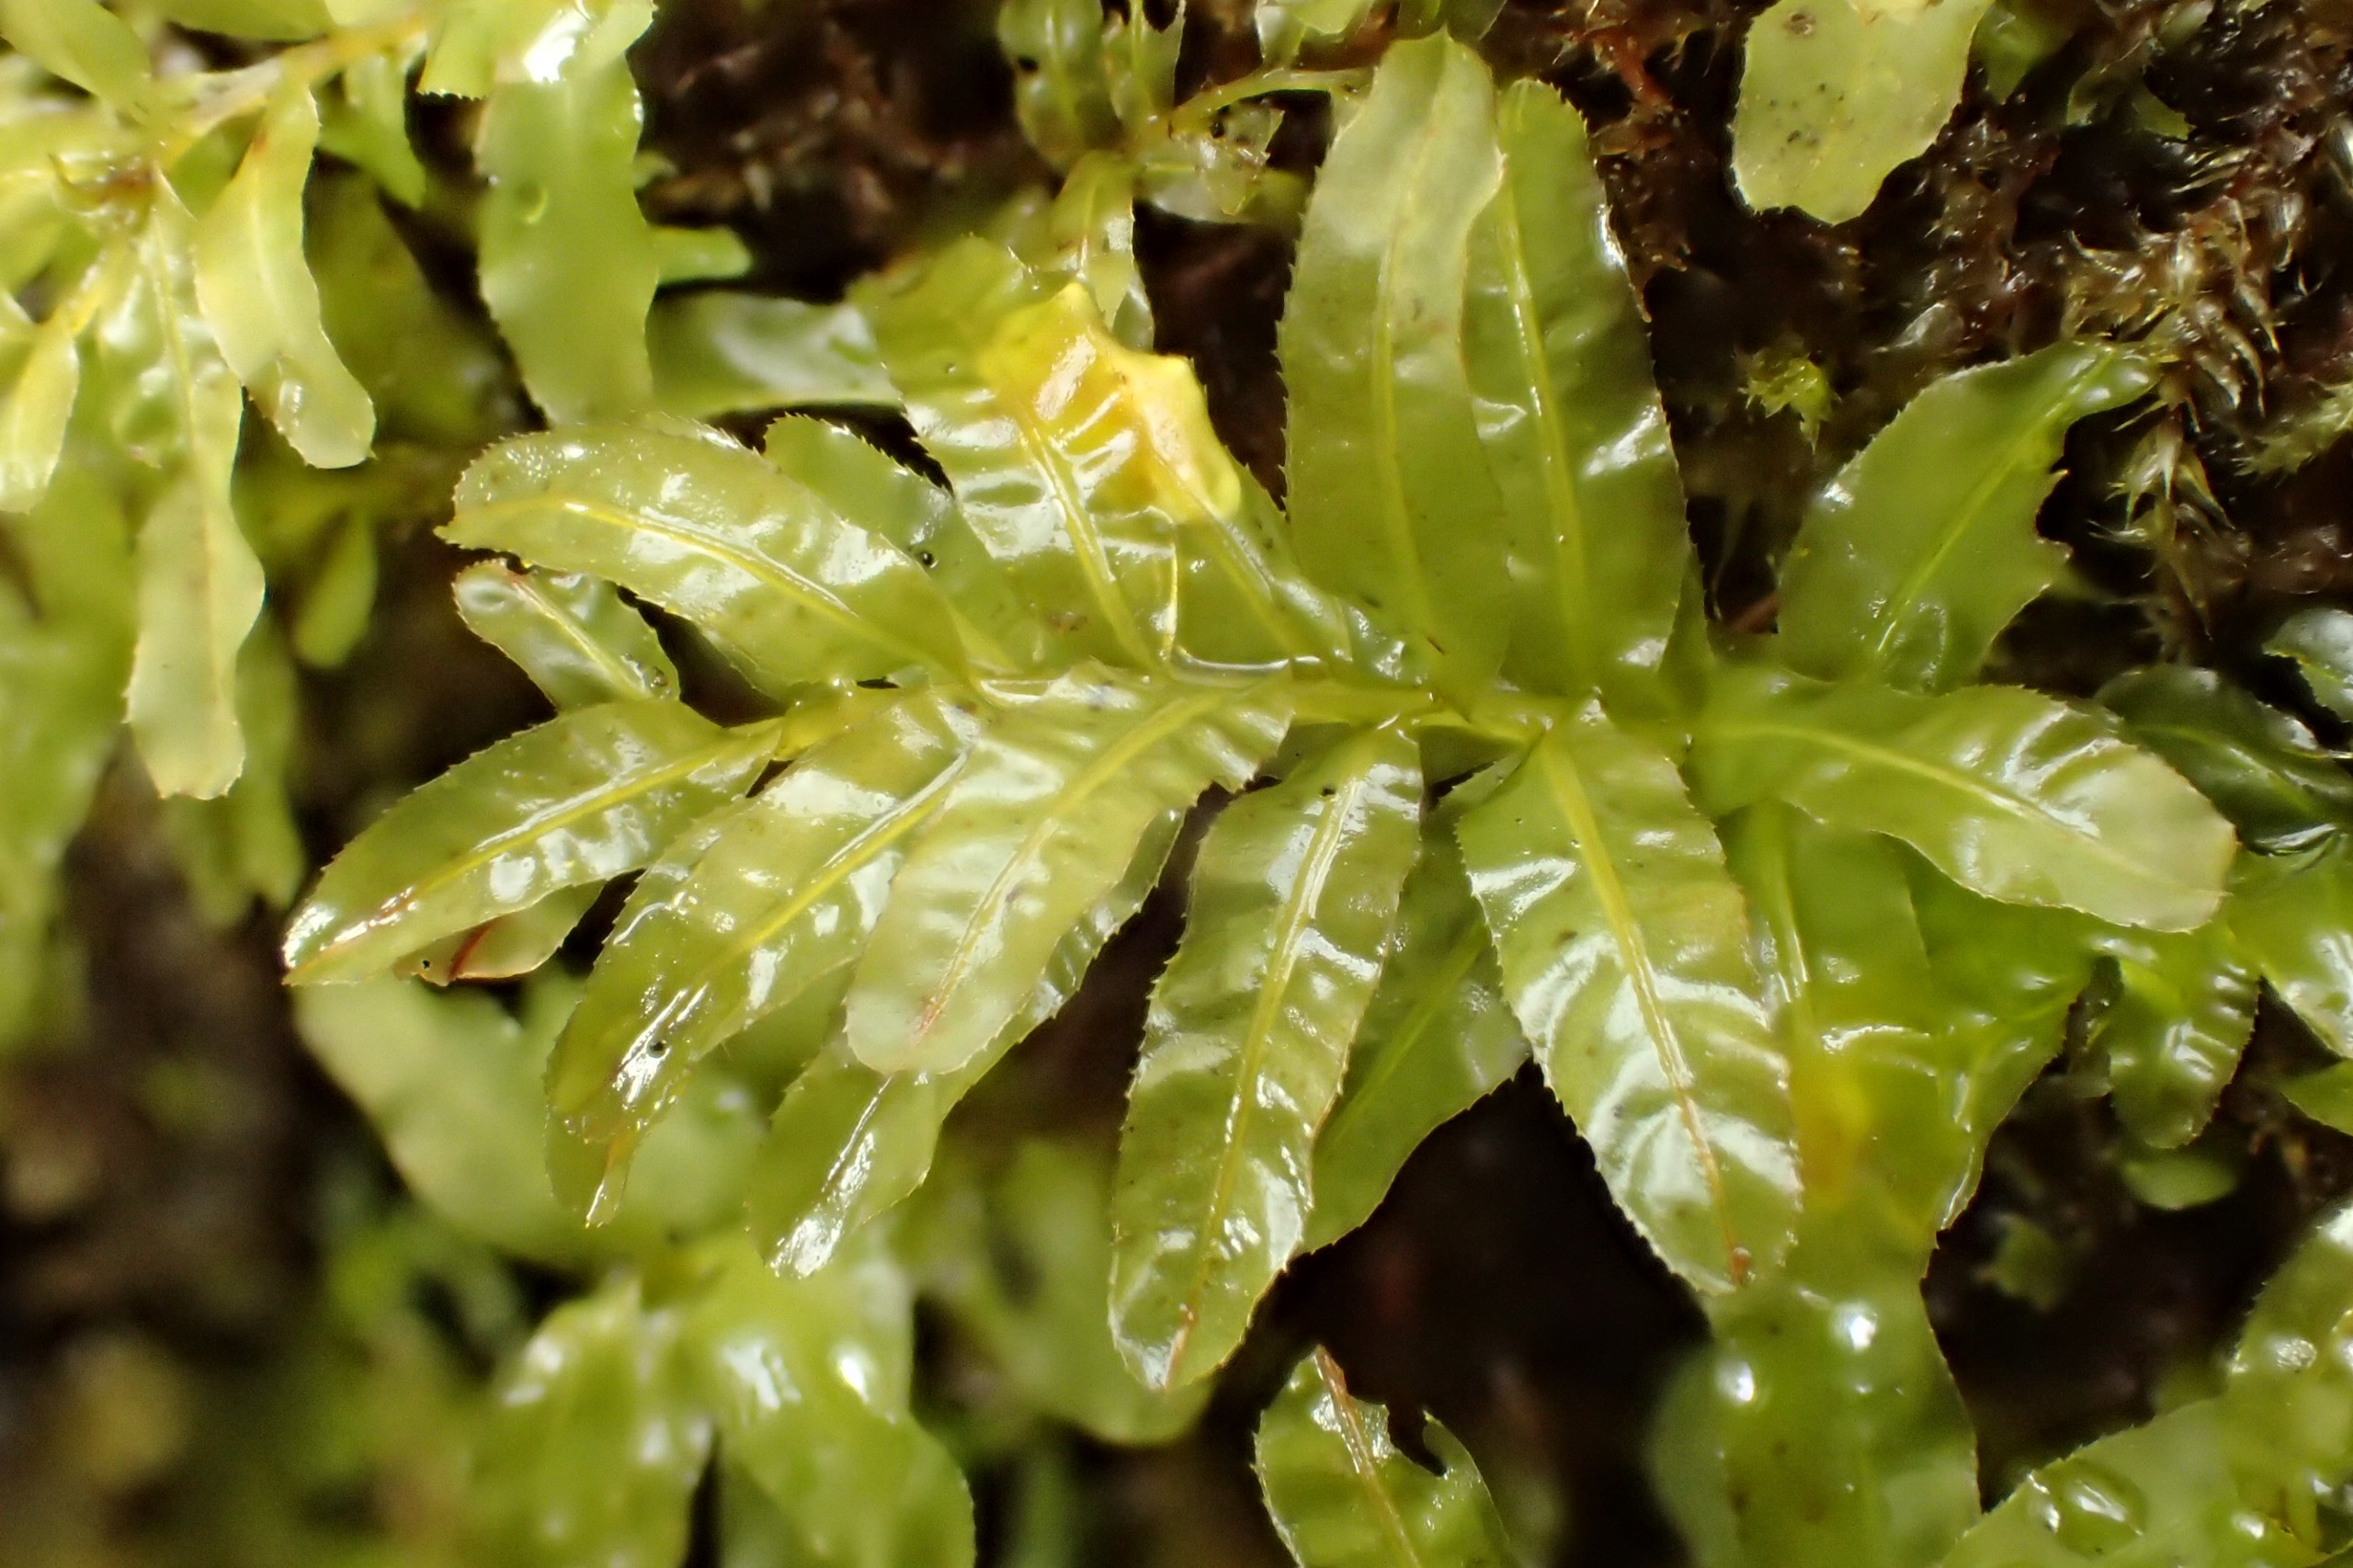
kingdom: Plantae
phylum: Bryophyta
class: Bryopsida
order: Bryales
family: Mniaceae
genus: Plagiomnium
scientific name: Plagiomnium undulatum
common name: Bølget krybstjerne
